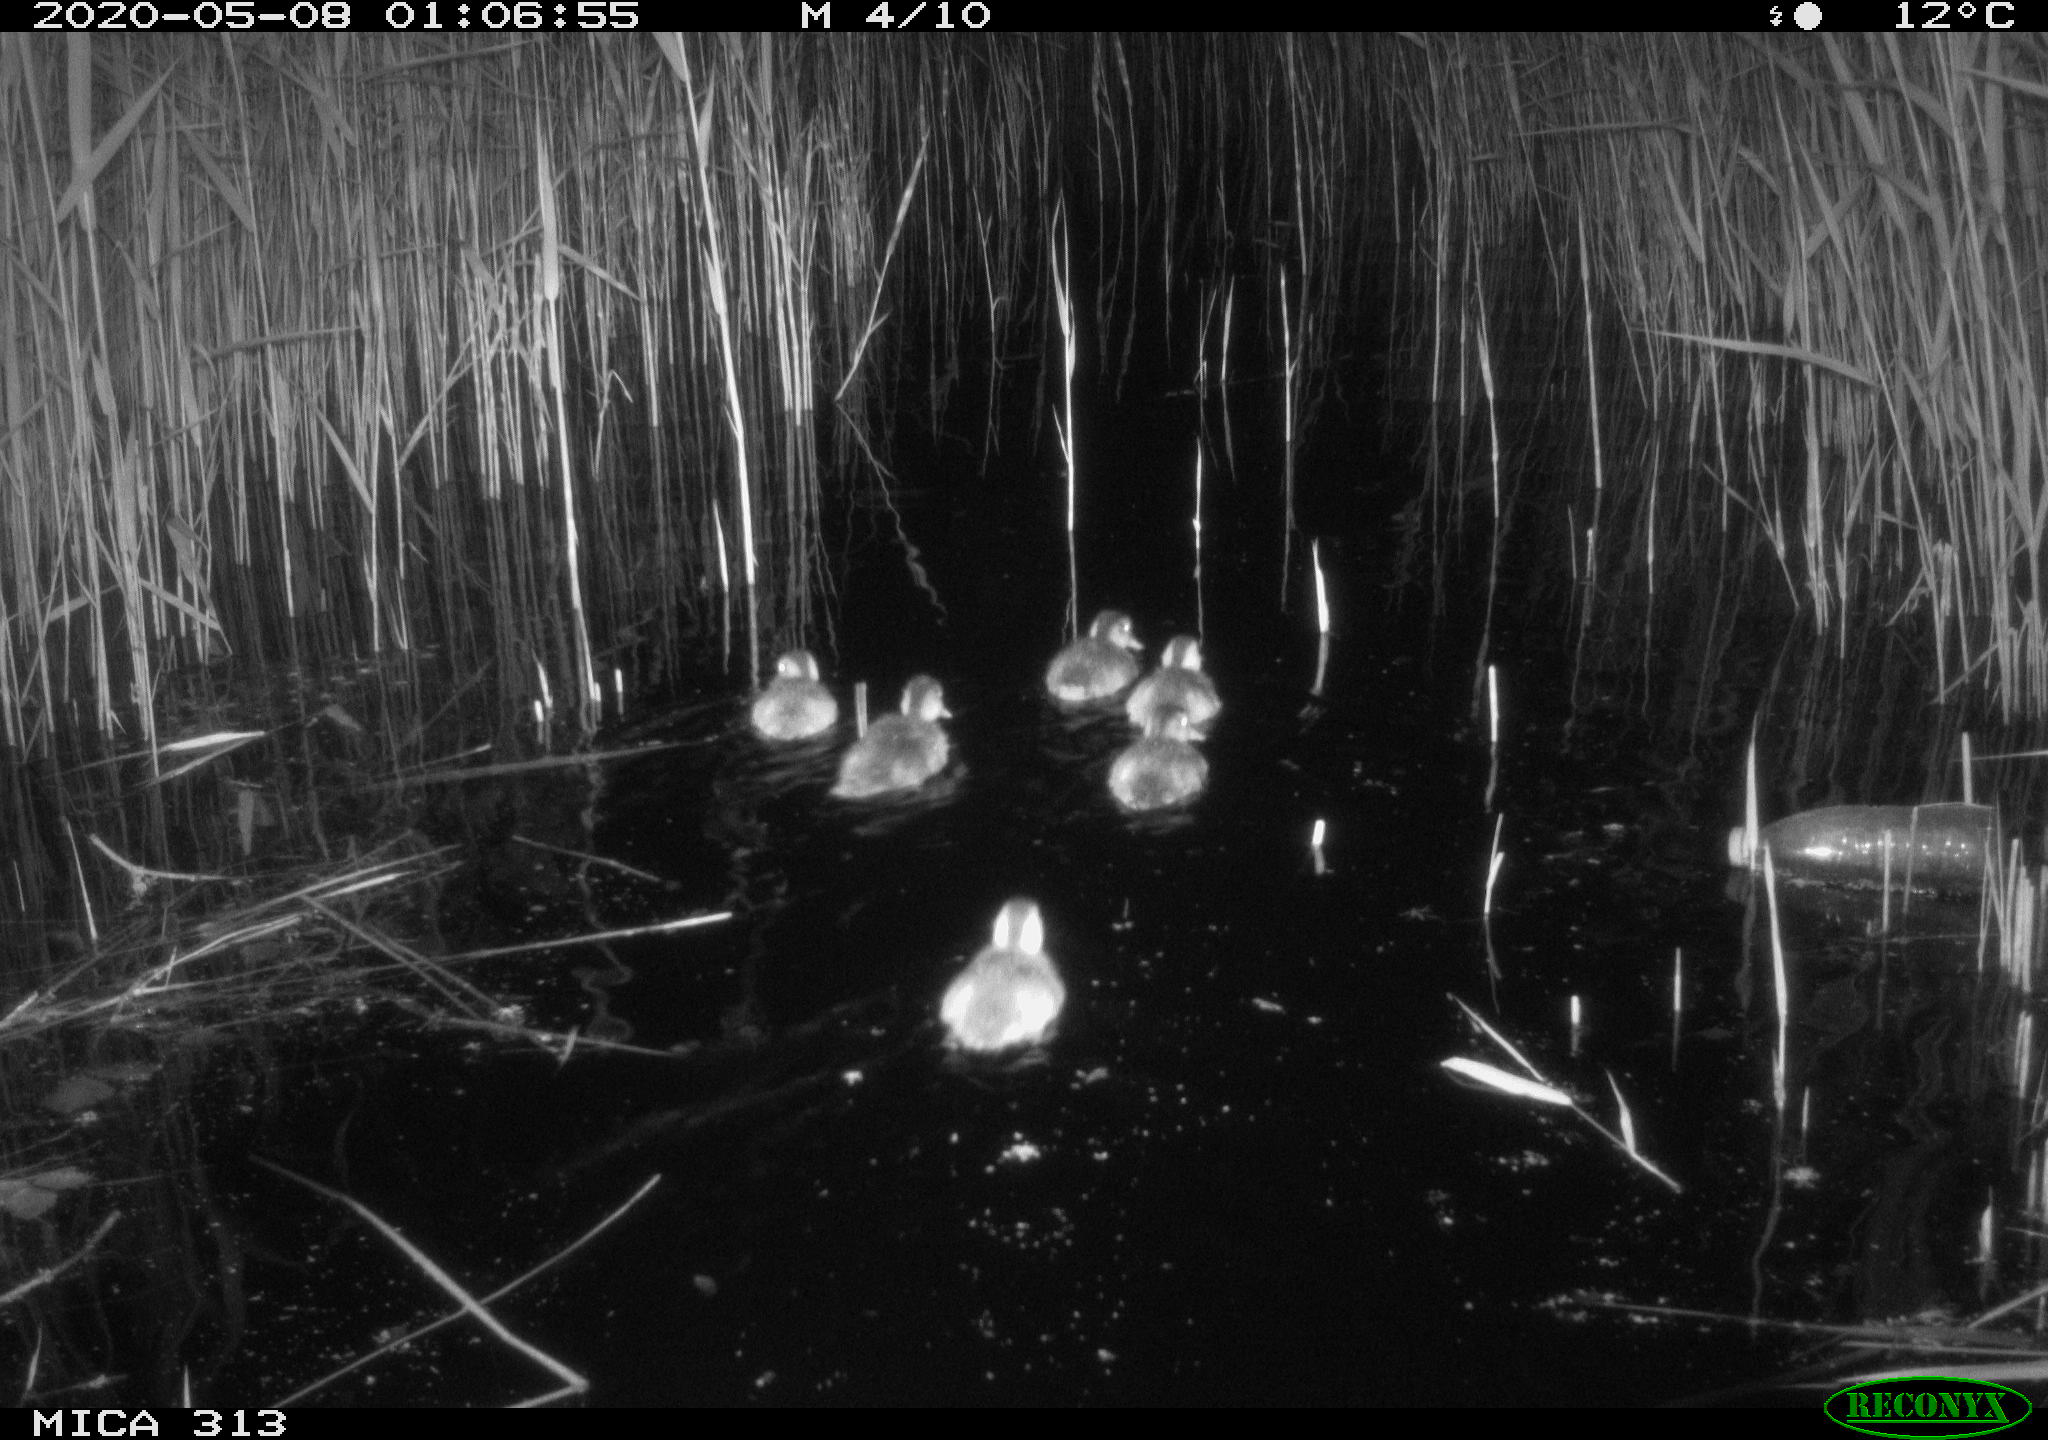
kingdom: Animalia
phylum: Chordata
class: Aves
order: Anseriformes
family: Anatidae
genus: Anas
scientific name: Anas platyrhynchos
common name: Mallard
